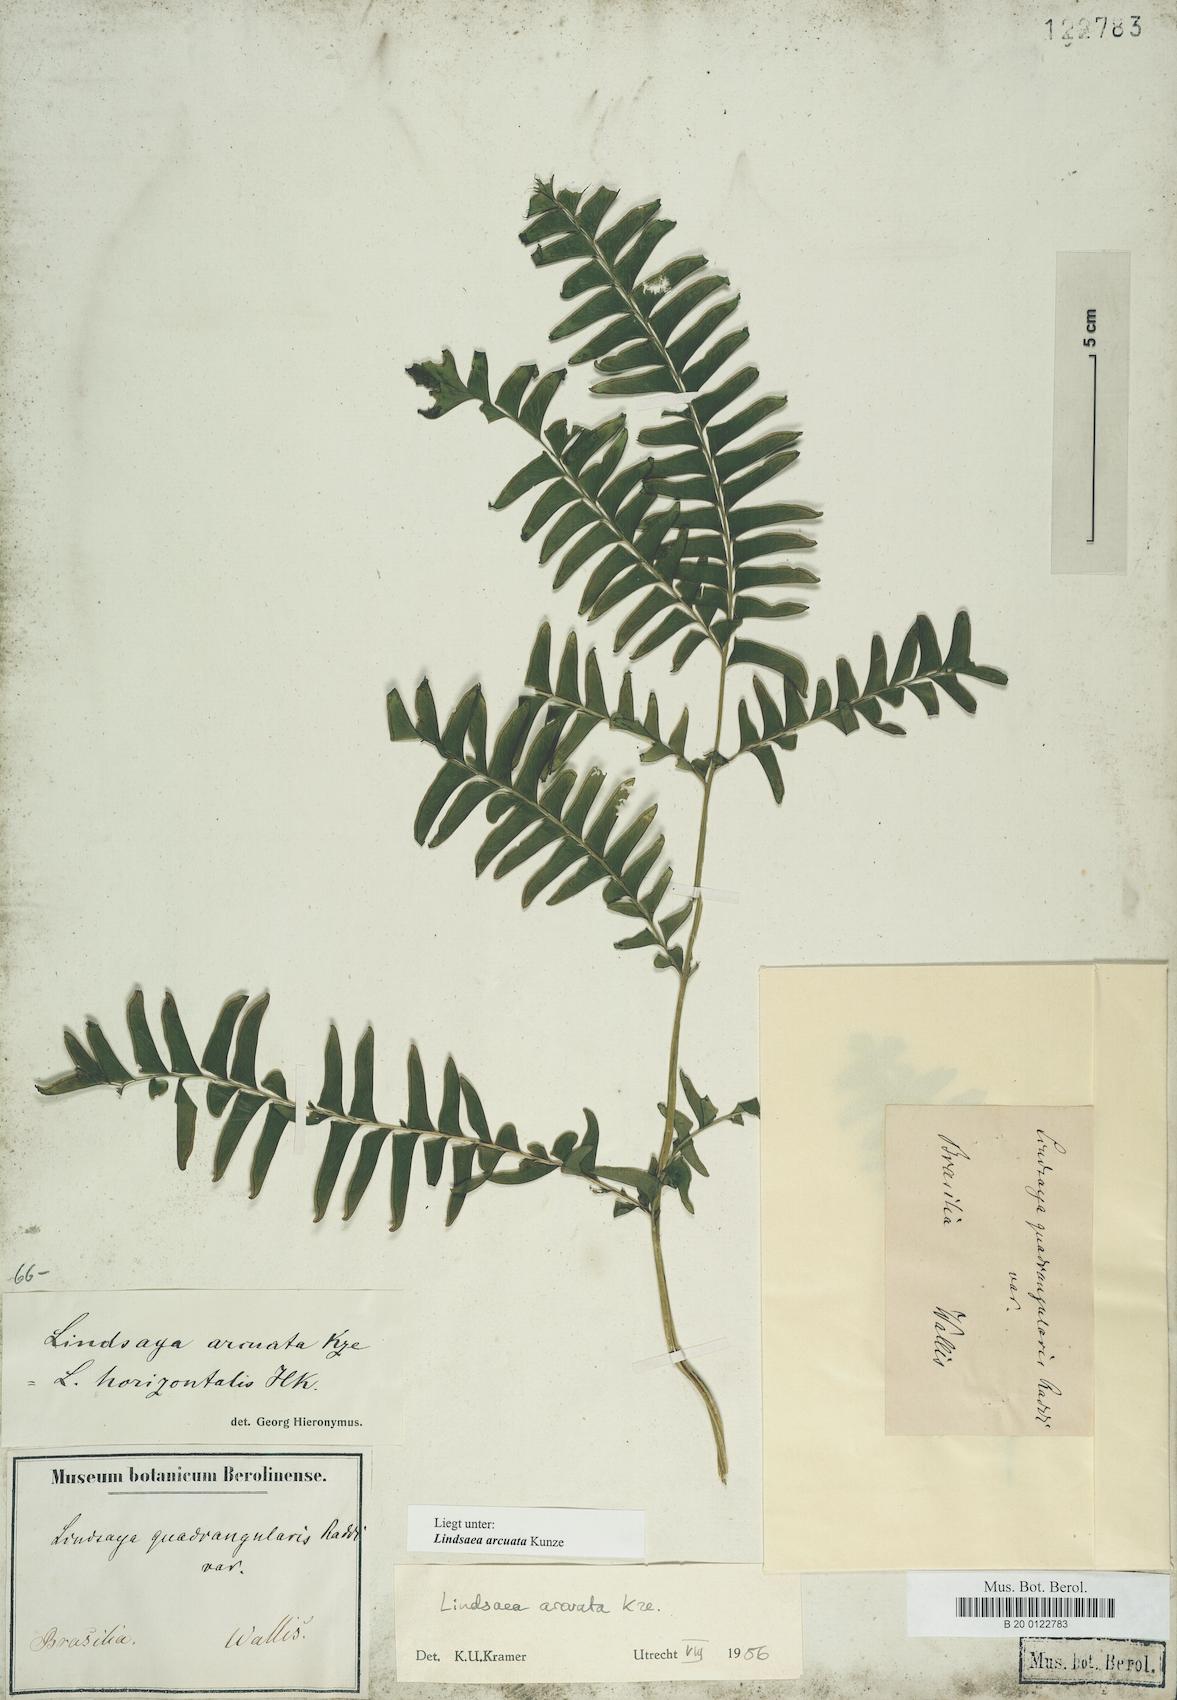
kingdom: Plantae
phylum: Tracheophyta
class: Polypodiopsida
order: Polypodiales
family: Lindsaeaceae
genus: Lindsaea
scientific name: Lindsaea arcuata
